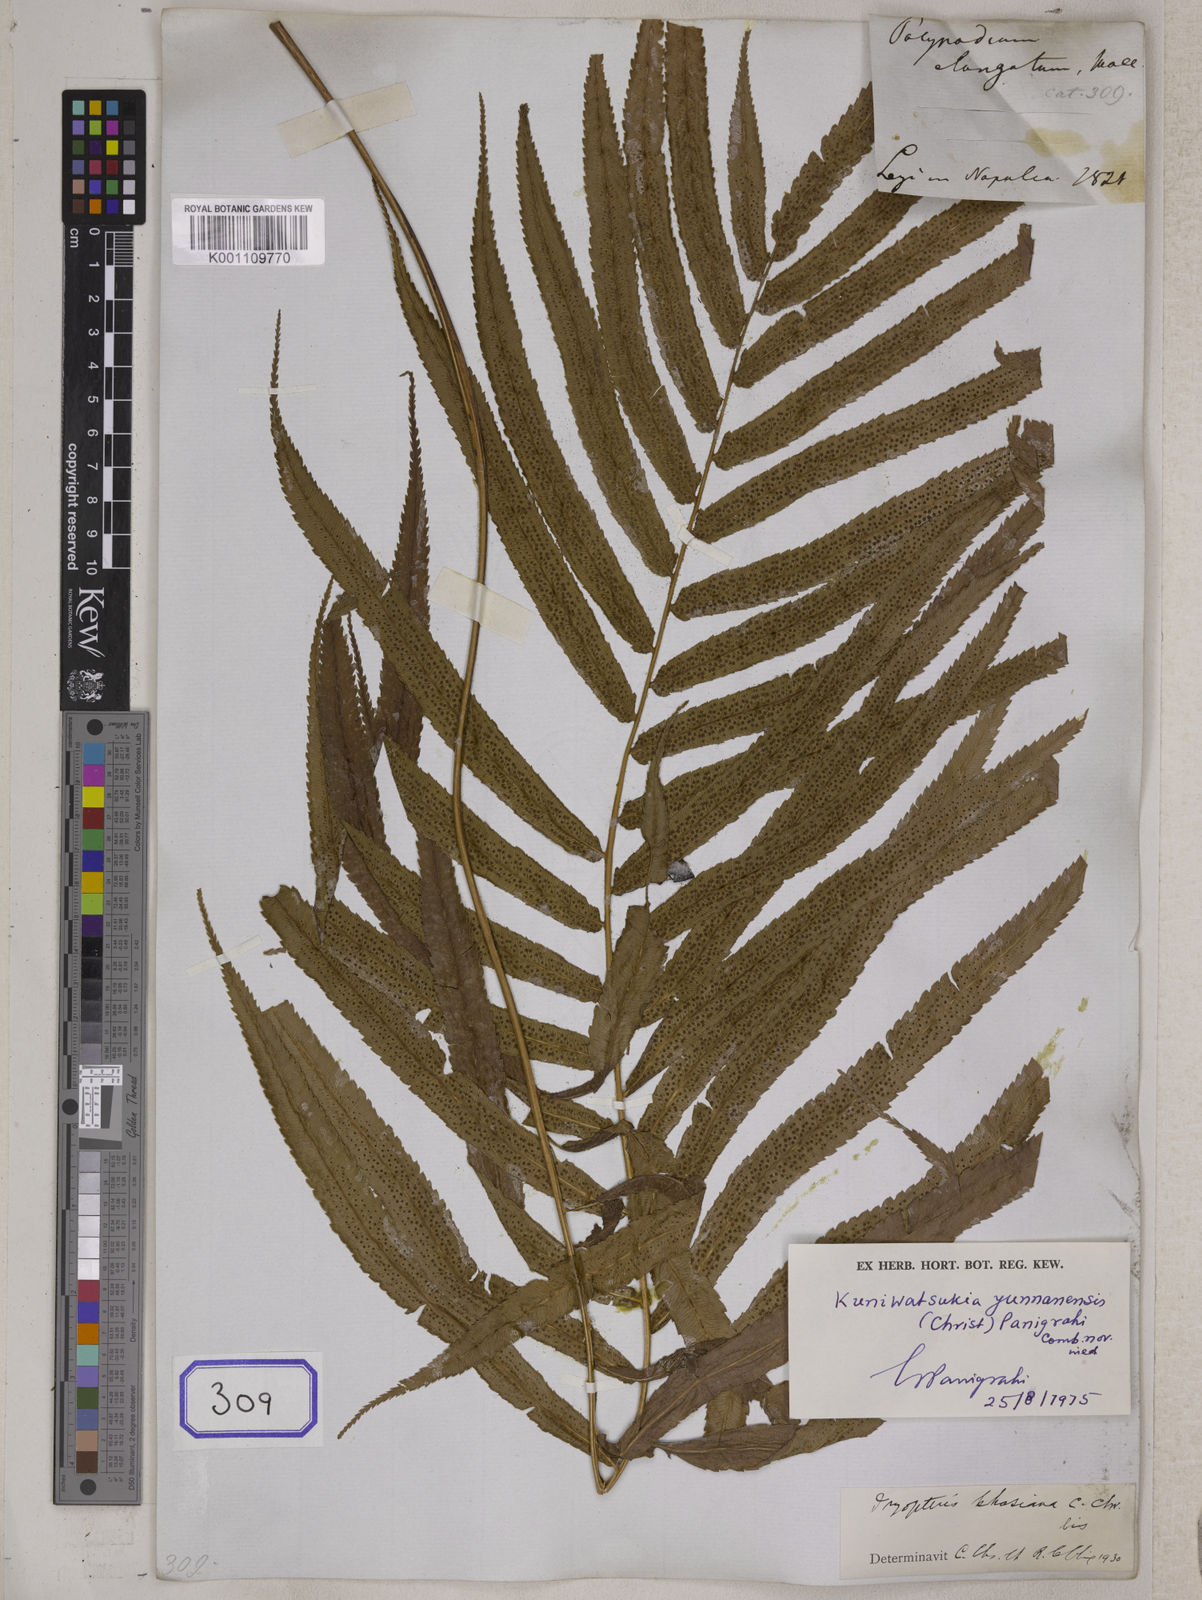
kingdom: Plantae
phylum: Tracheophyta
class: Polypodiopsida
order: Polypodiales
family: Athyriaceae
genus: Anisocampium
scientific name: Anisocampium cuspidatum
